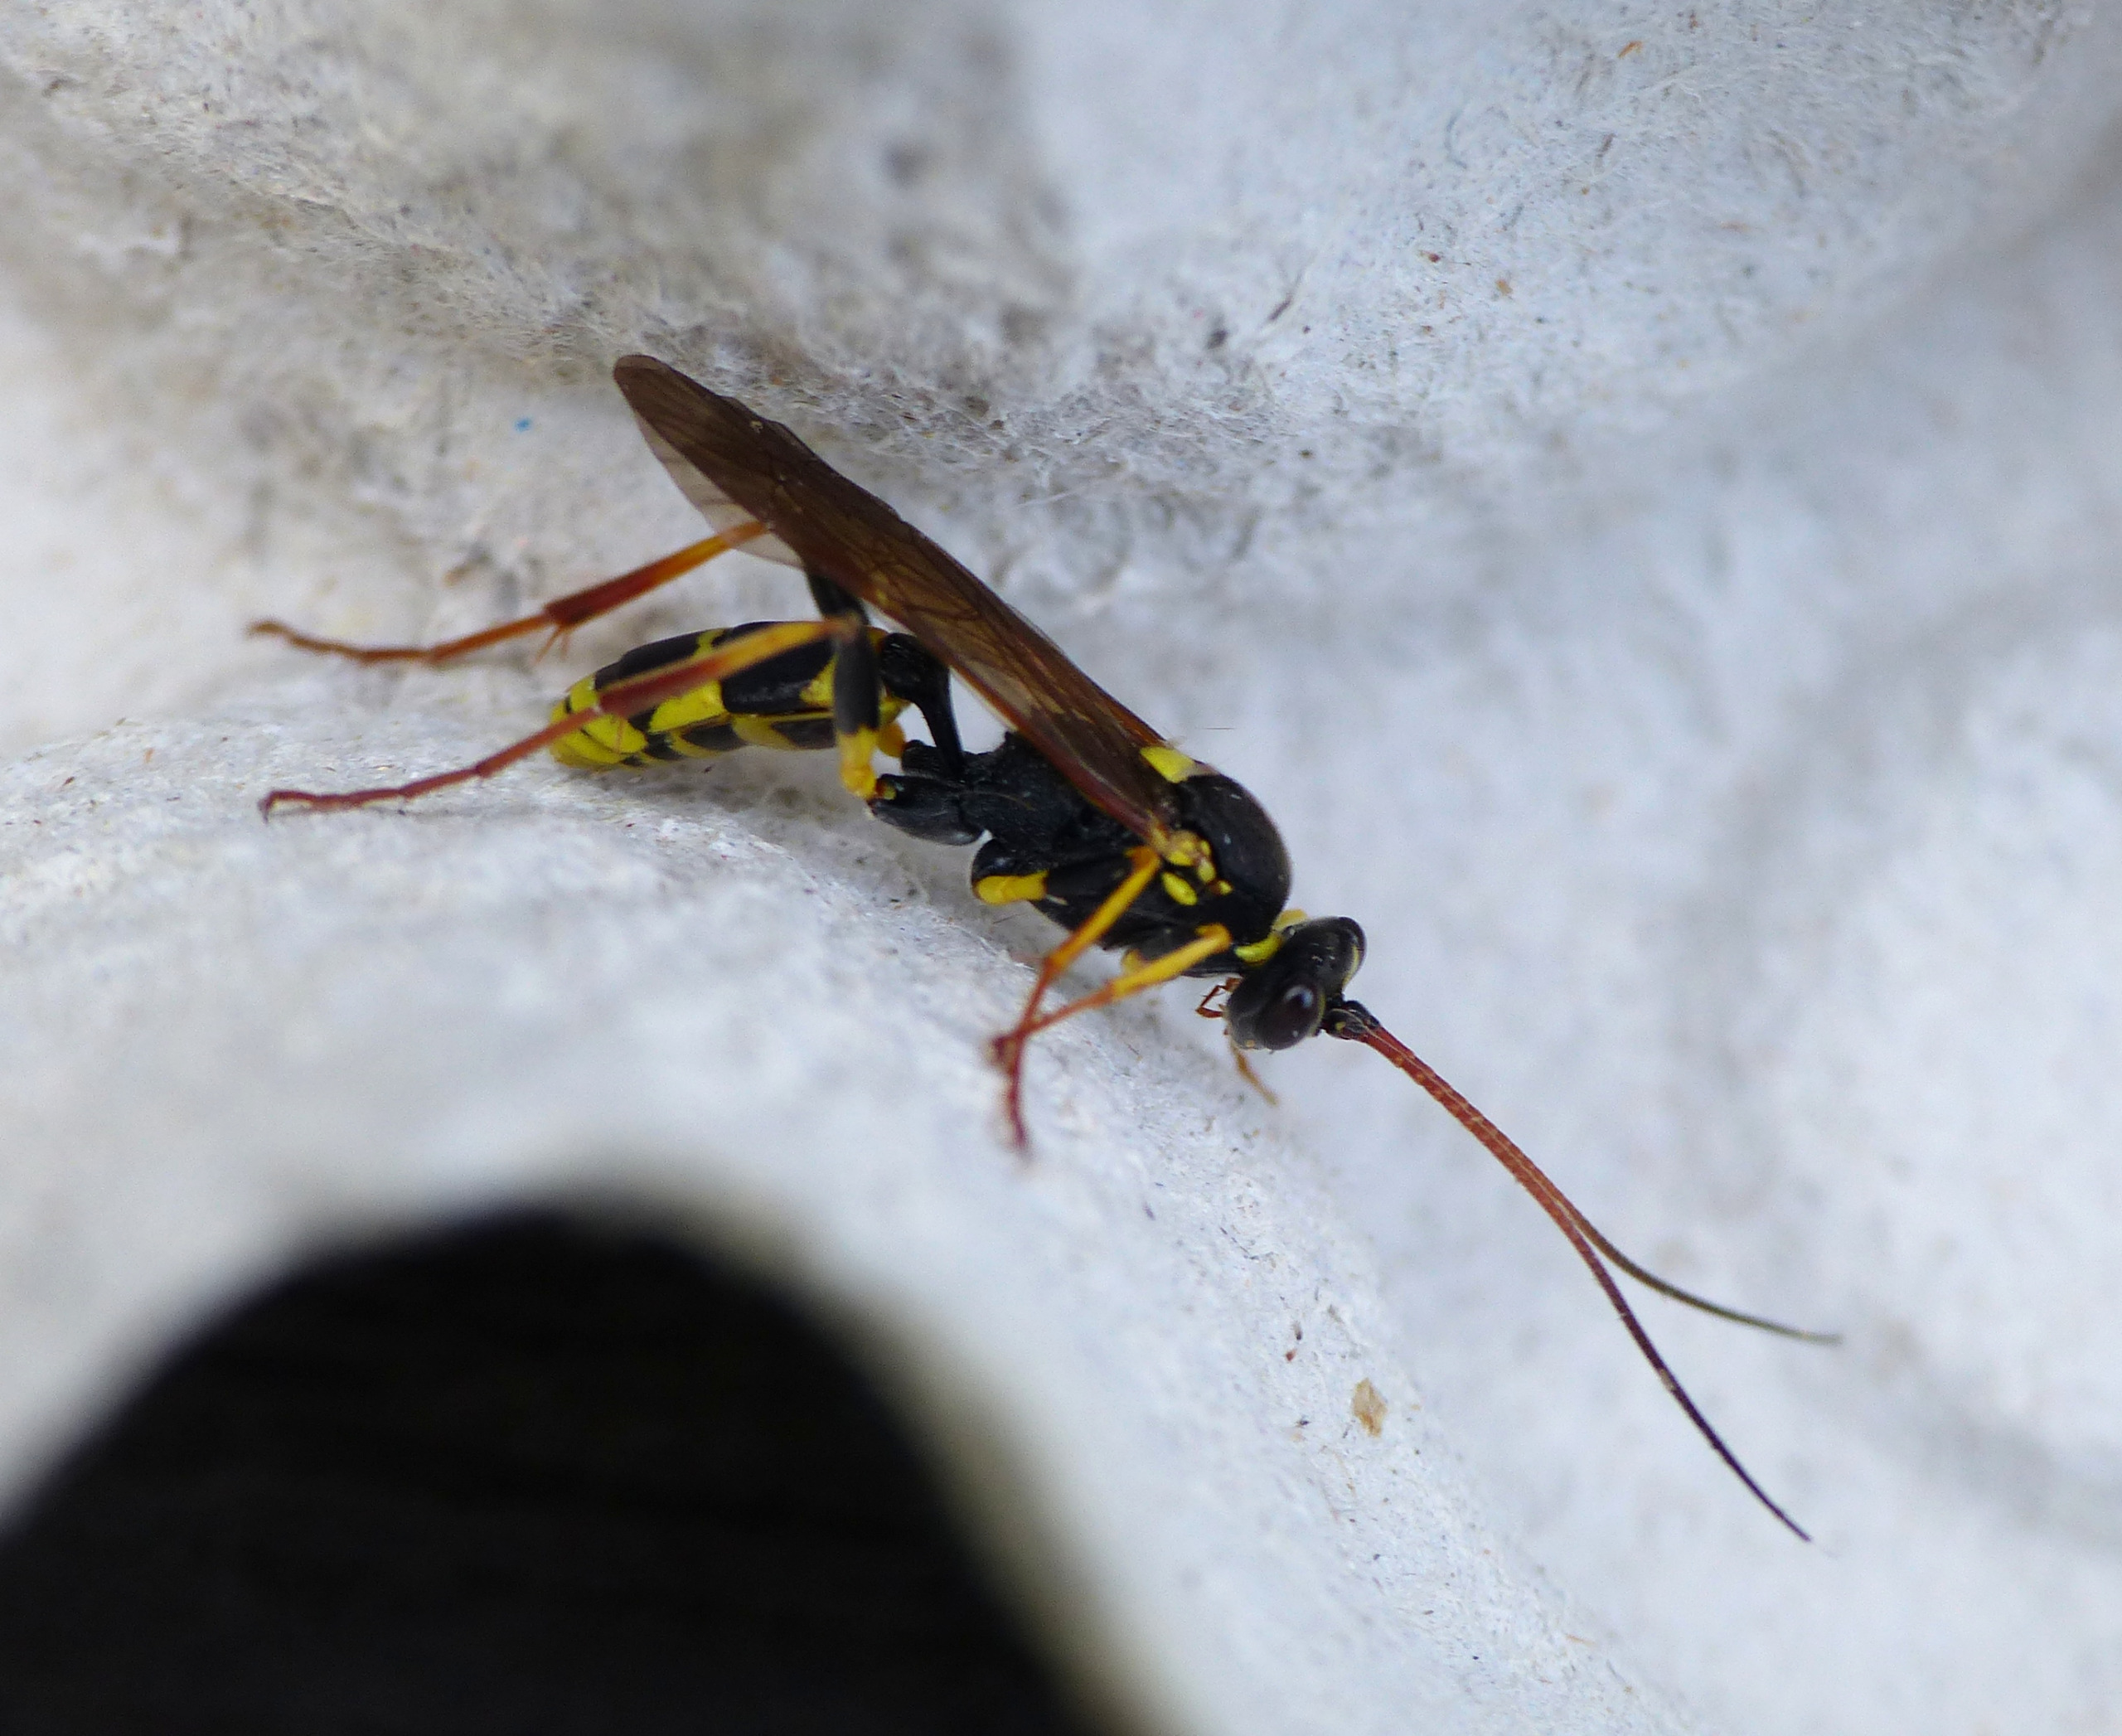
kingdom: Animalia
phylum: Arthropoda
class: Insecta
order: Hymenoptera
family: Ichneumonidae
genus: Amblyteles
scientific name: Amblyteles armatorius
